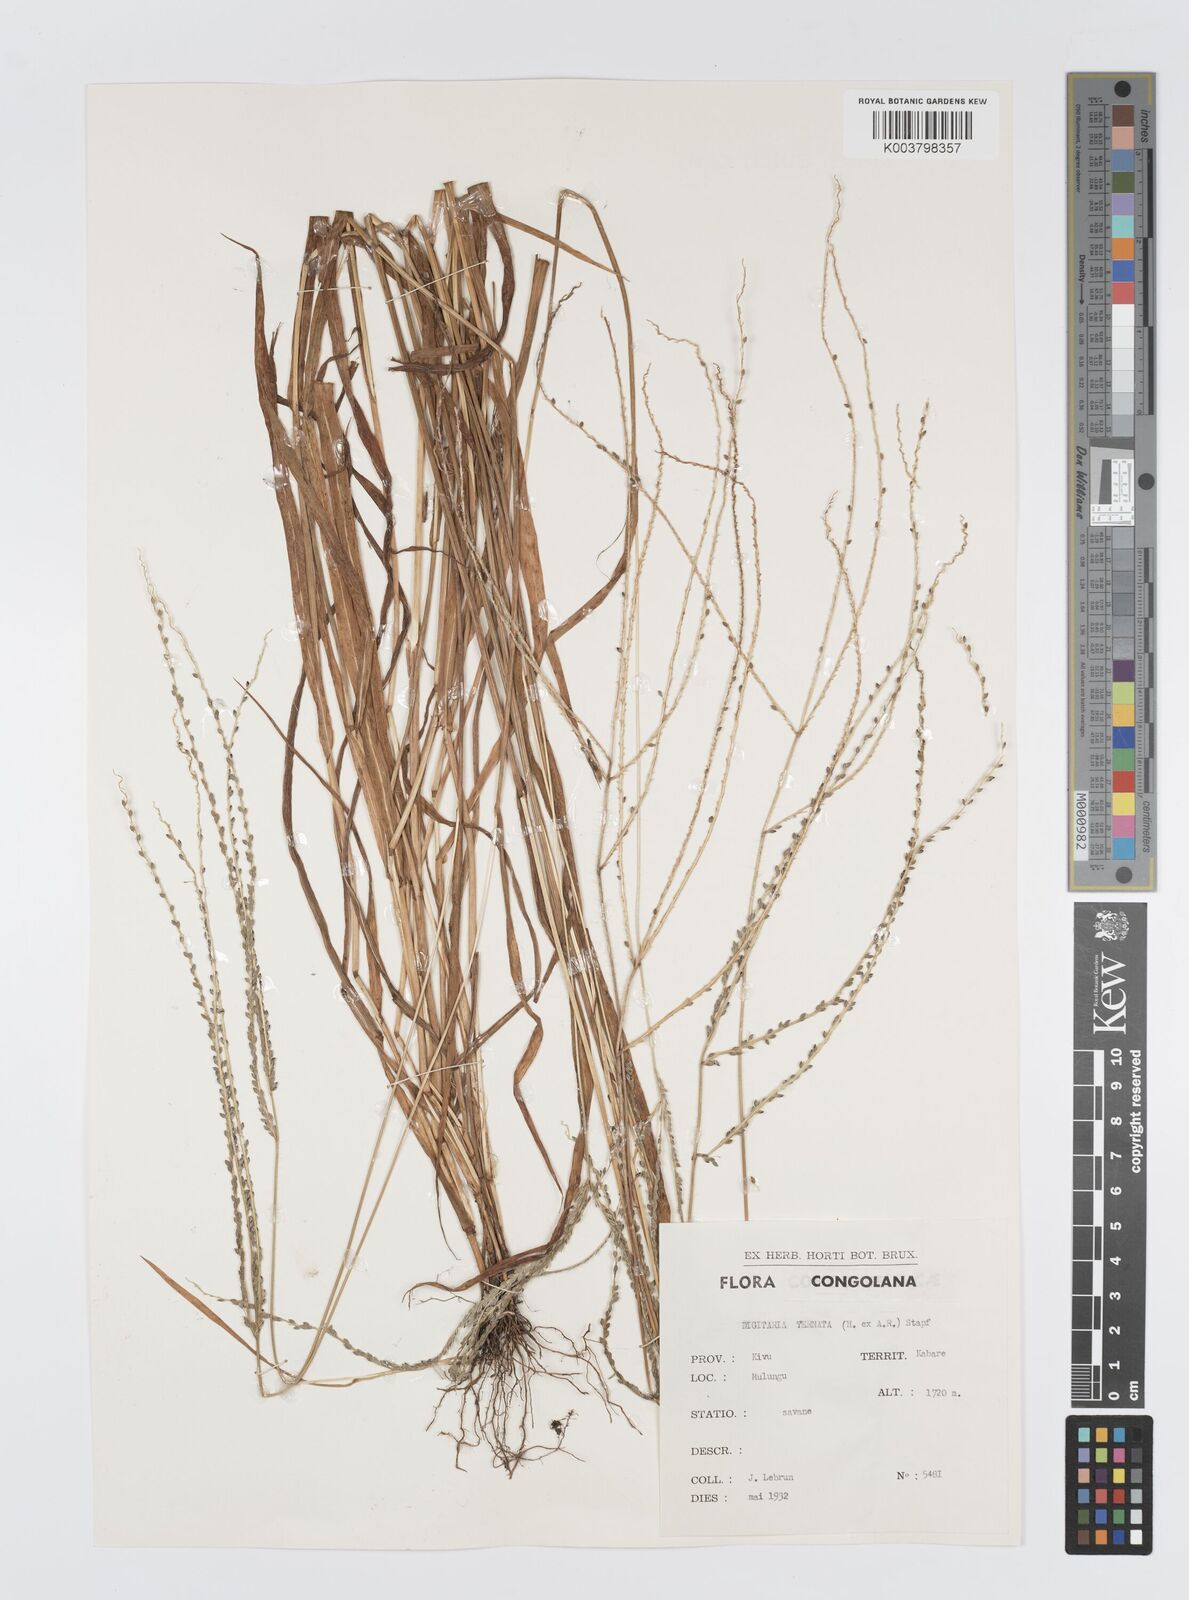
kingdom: Plantae
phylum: Tracheophyta
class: Liliopsida
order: Poales
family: Poaceae
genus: Digitaria
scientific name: Digitaria ternata
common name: Blackseed crabgrass
